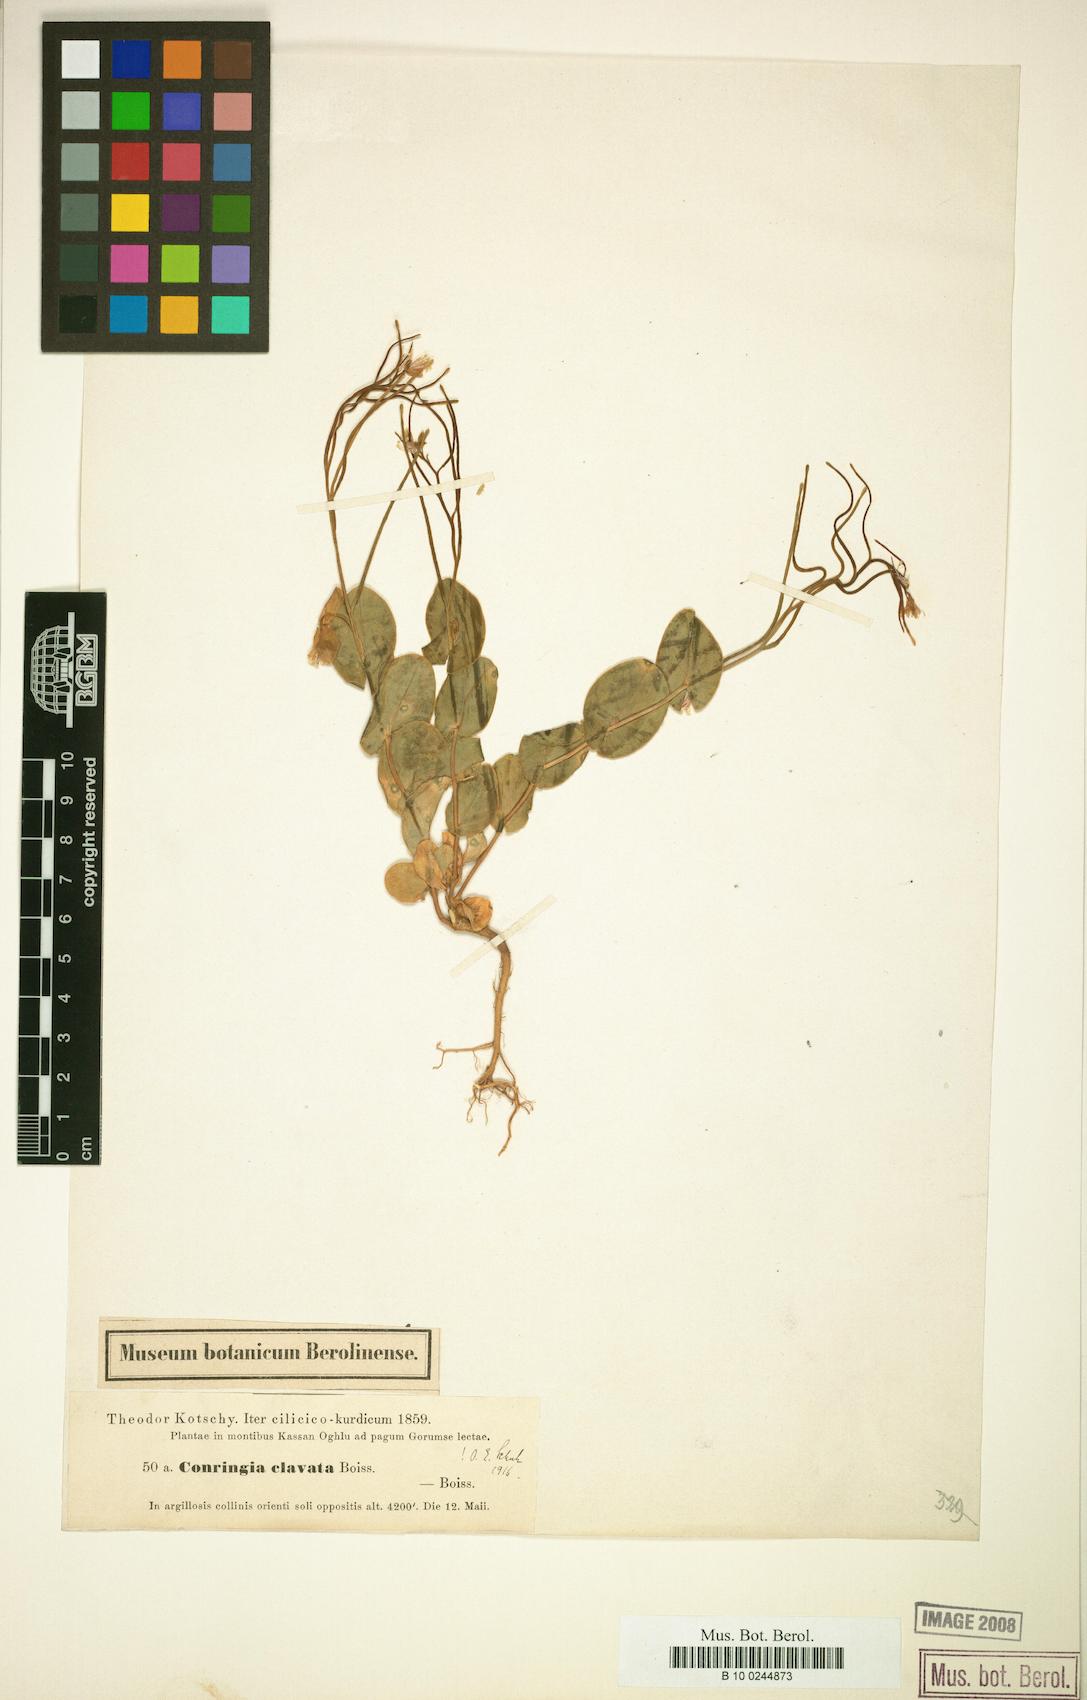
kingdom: Plantae
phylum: Tracheophyta
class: Magnoliopsida
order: Brassicales
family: Brassicaceae
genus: Conringia
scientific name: Conringia clavata
